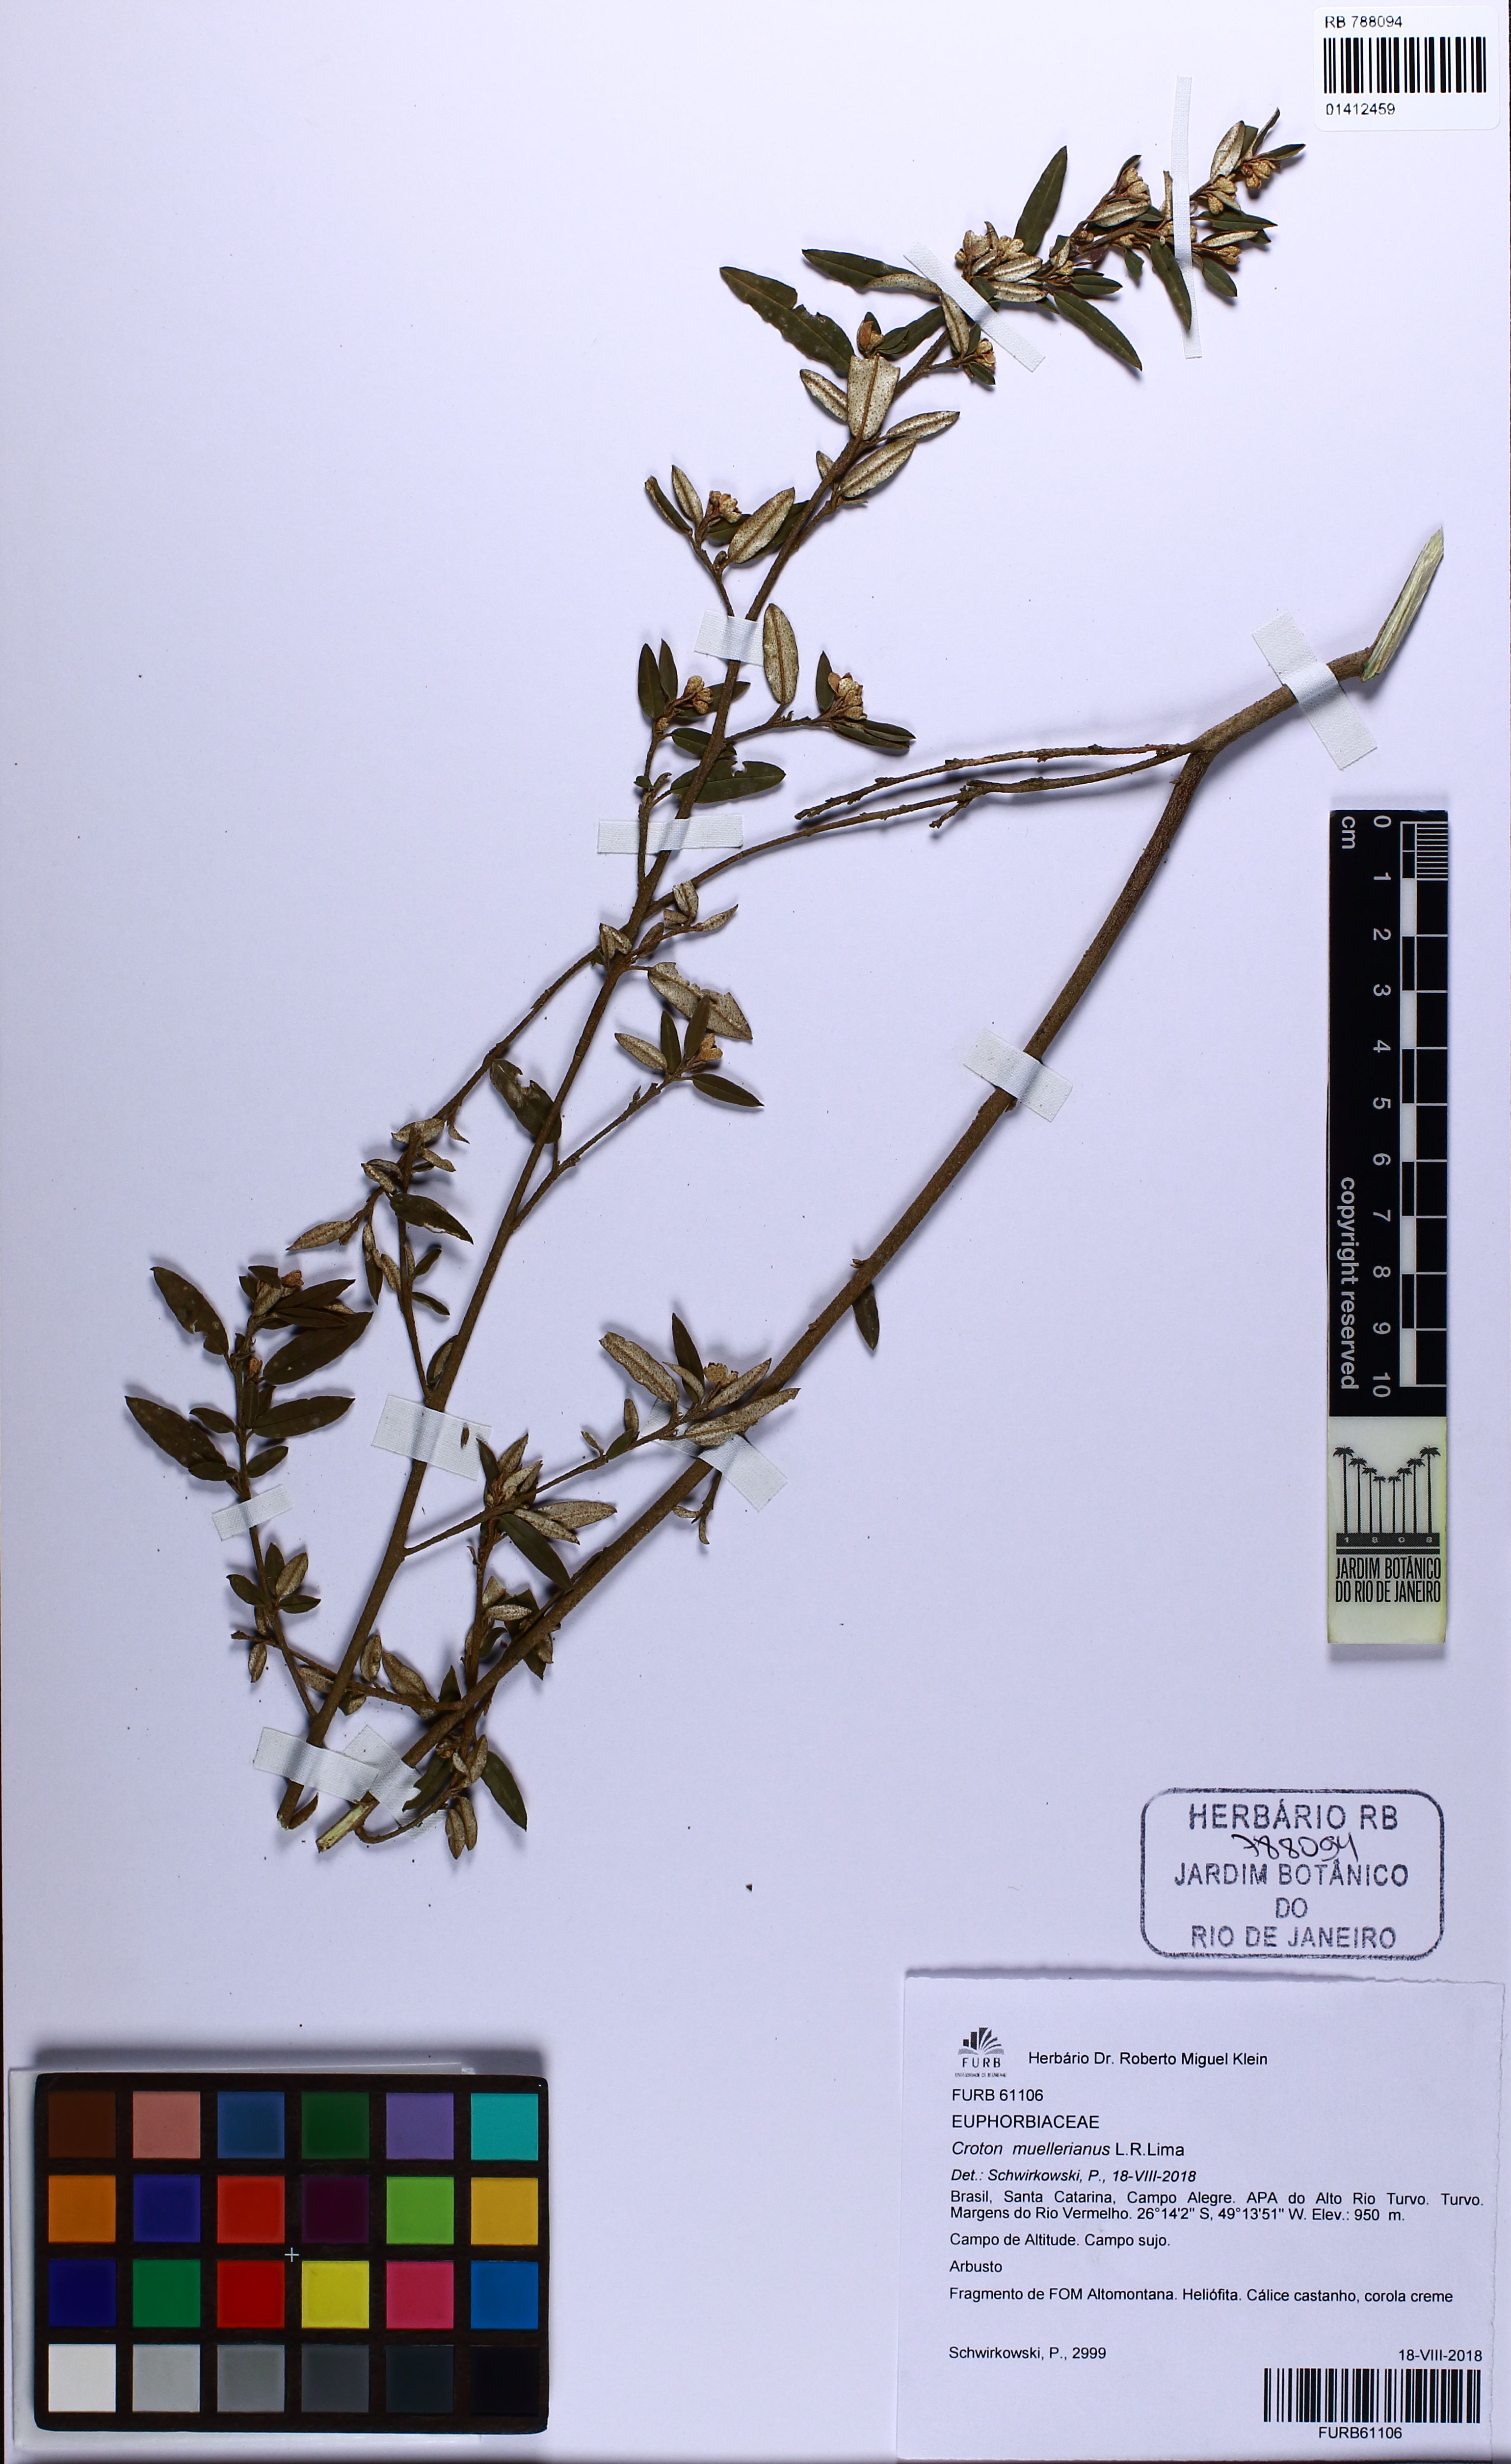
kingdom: Plantae
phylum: Tracheophyta
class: Magnoliopsida
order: Malpighiales
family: Euphorbiaceae
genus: Croton
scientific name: Croton myrianthus
